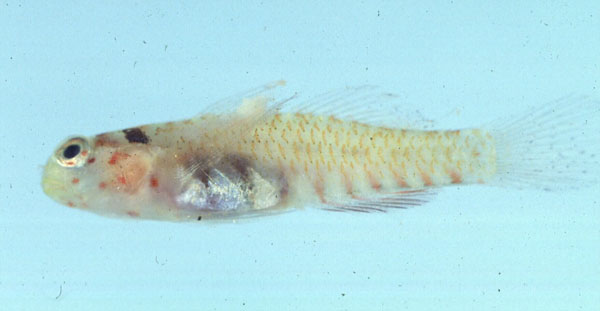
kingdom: Animalia
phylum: Chordata
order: Perciformes
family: Gobiidae
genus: Eviota
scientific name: Eviota melasma
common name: Melasma pygmy goby
